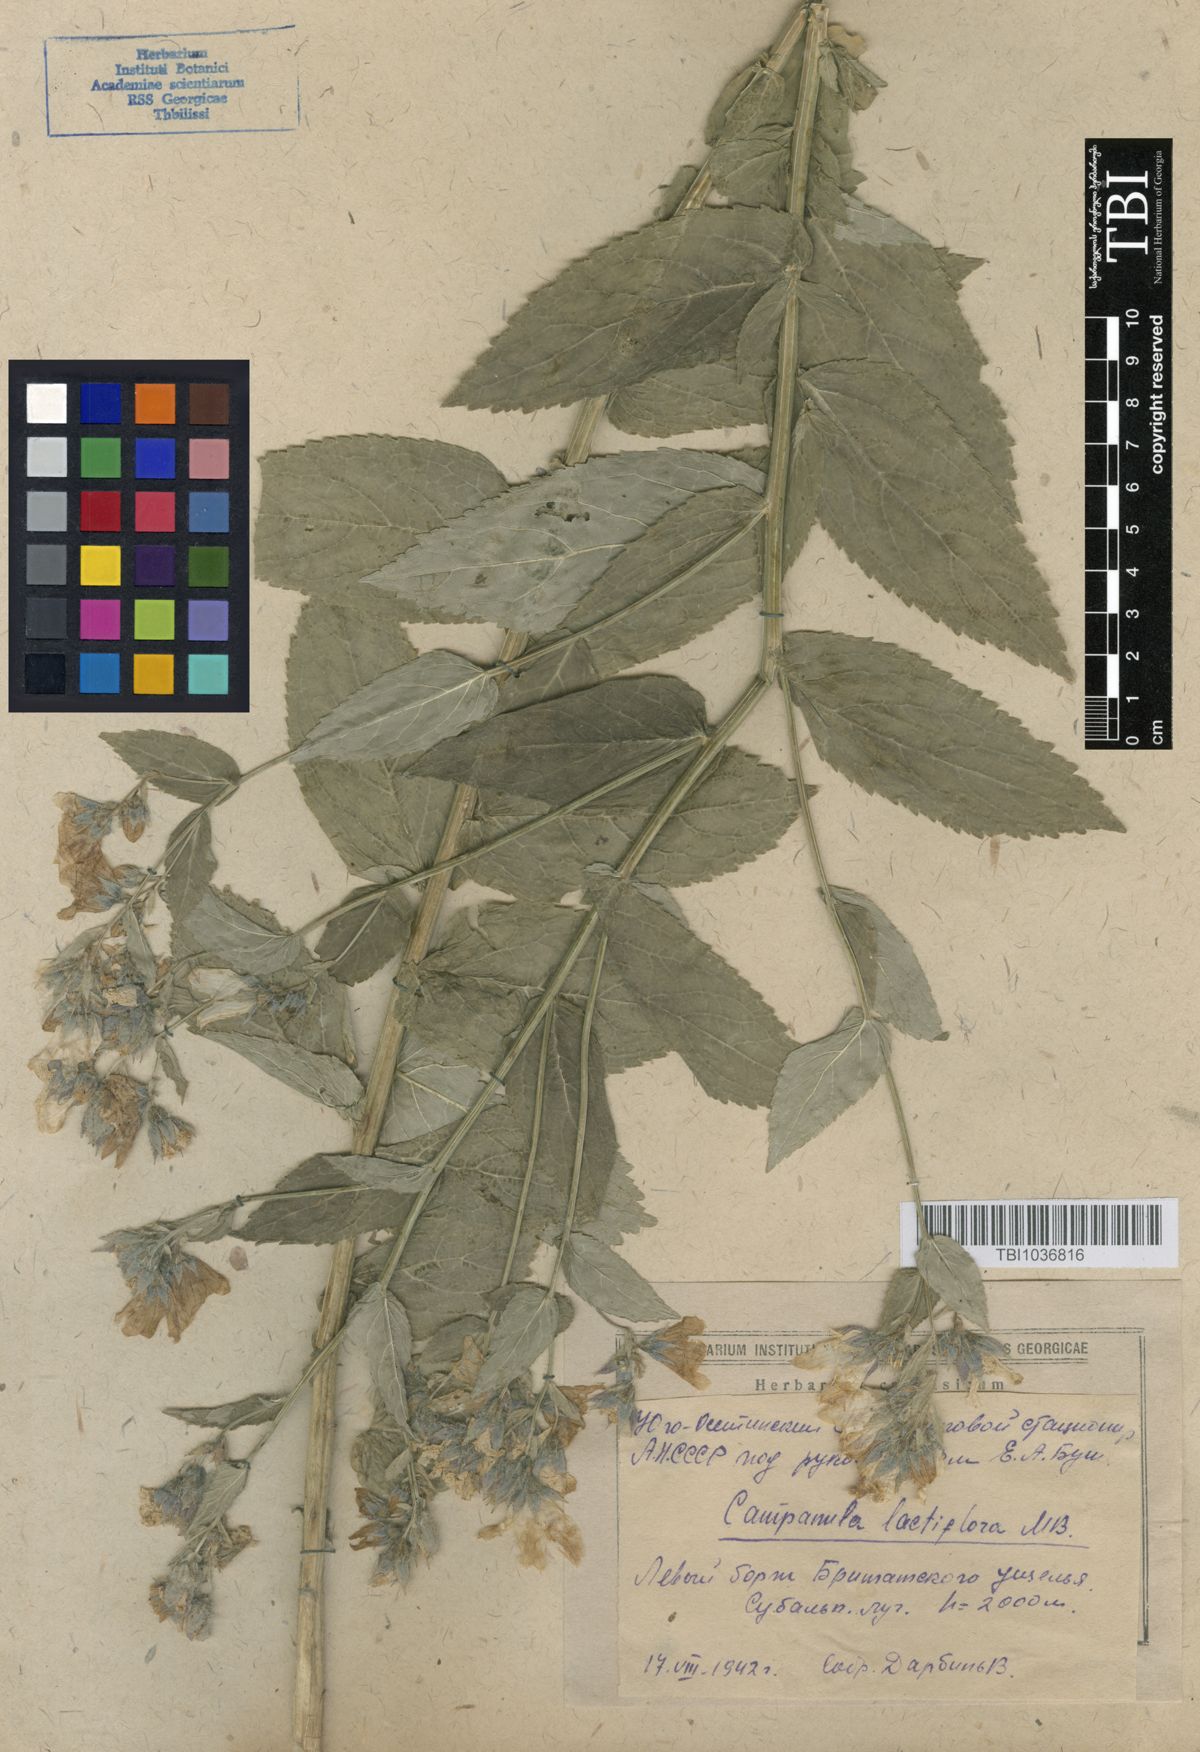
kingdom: Plantae
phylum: Tracheophyta
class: Magnoliopsida
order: Asterales
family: Campanulaceae
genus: Campanula
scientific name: Campanula lactiflora
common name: Milky bellflower
